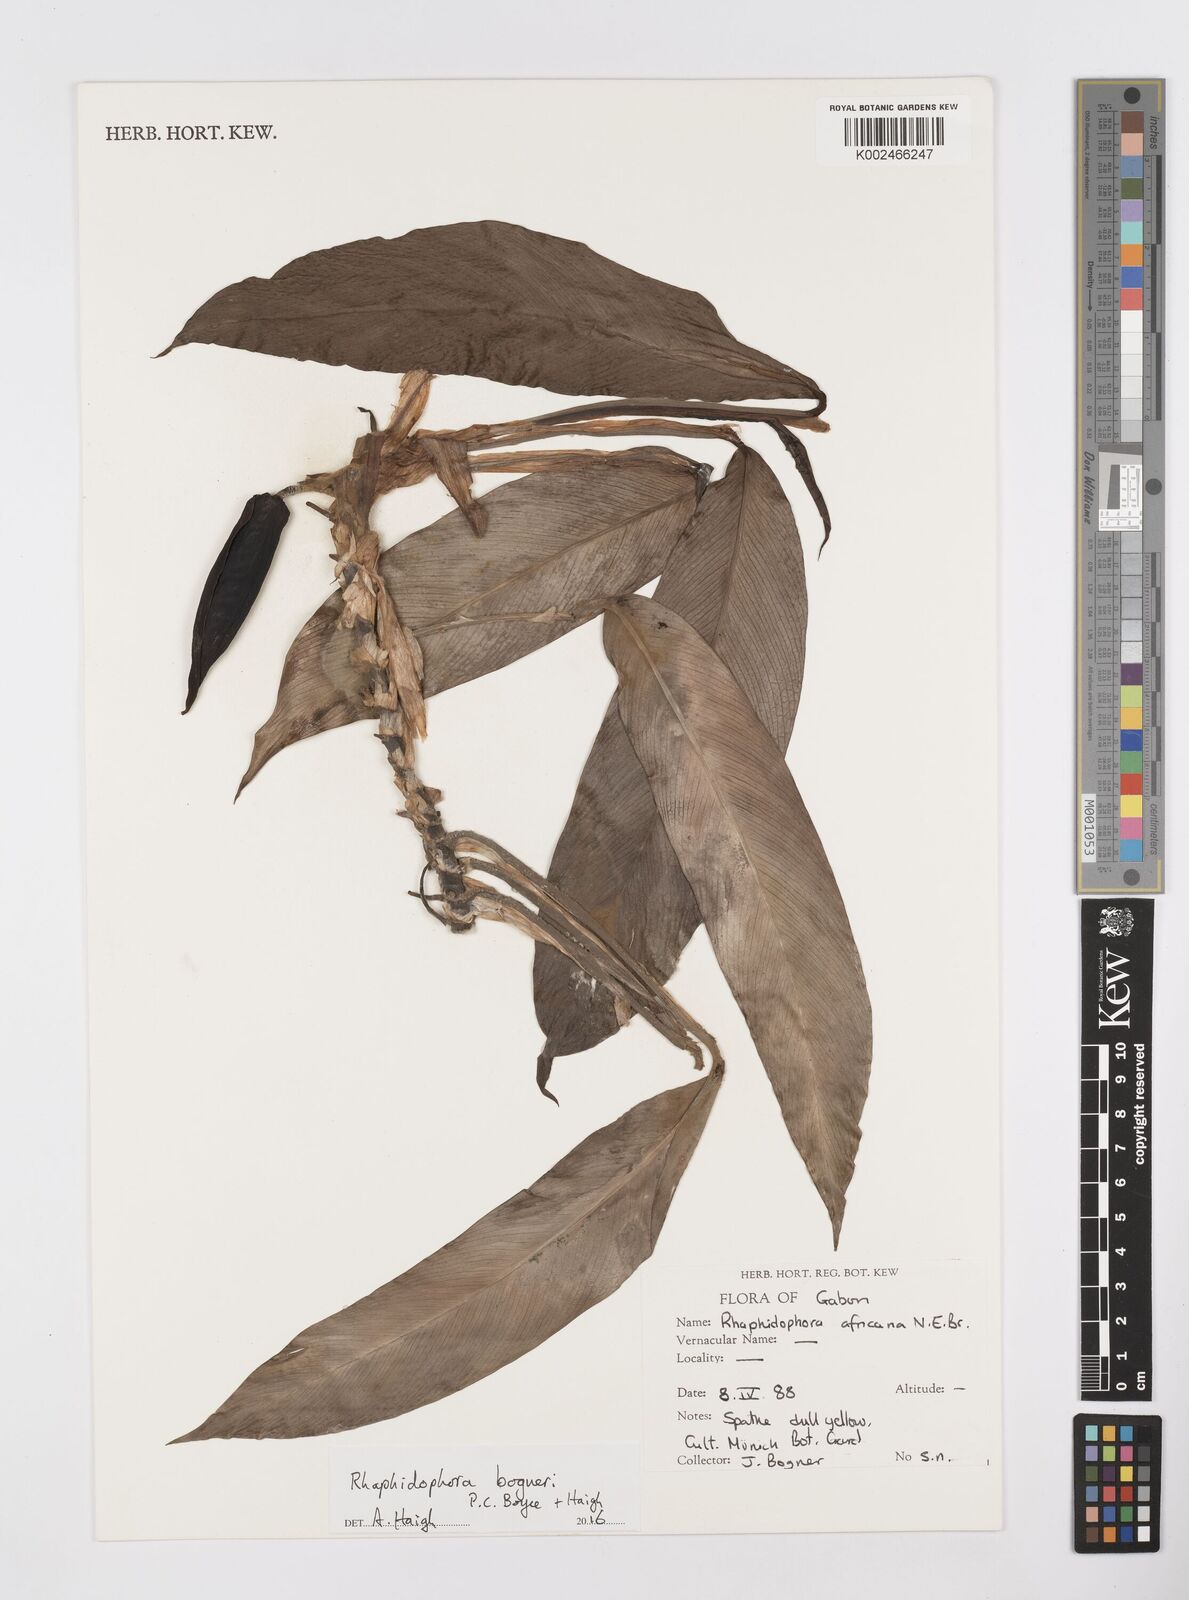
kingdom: Plantae
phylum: Tracheophyta
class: Liliopsida
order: Alismatales
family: Araceae
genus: Rhaphidophora
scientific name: Rhaphidophora bogneri
